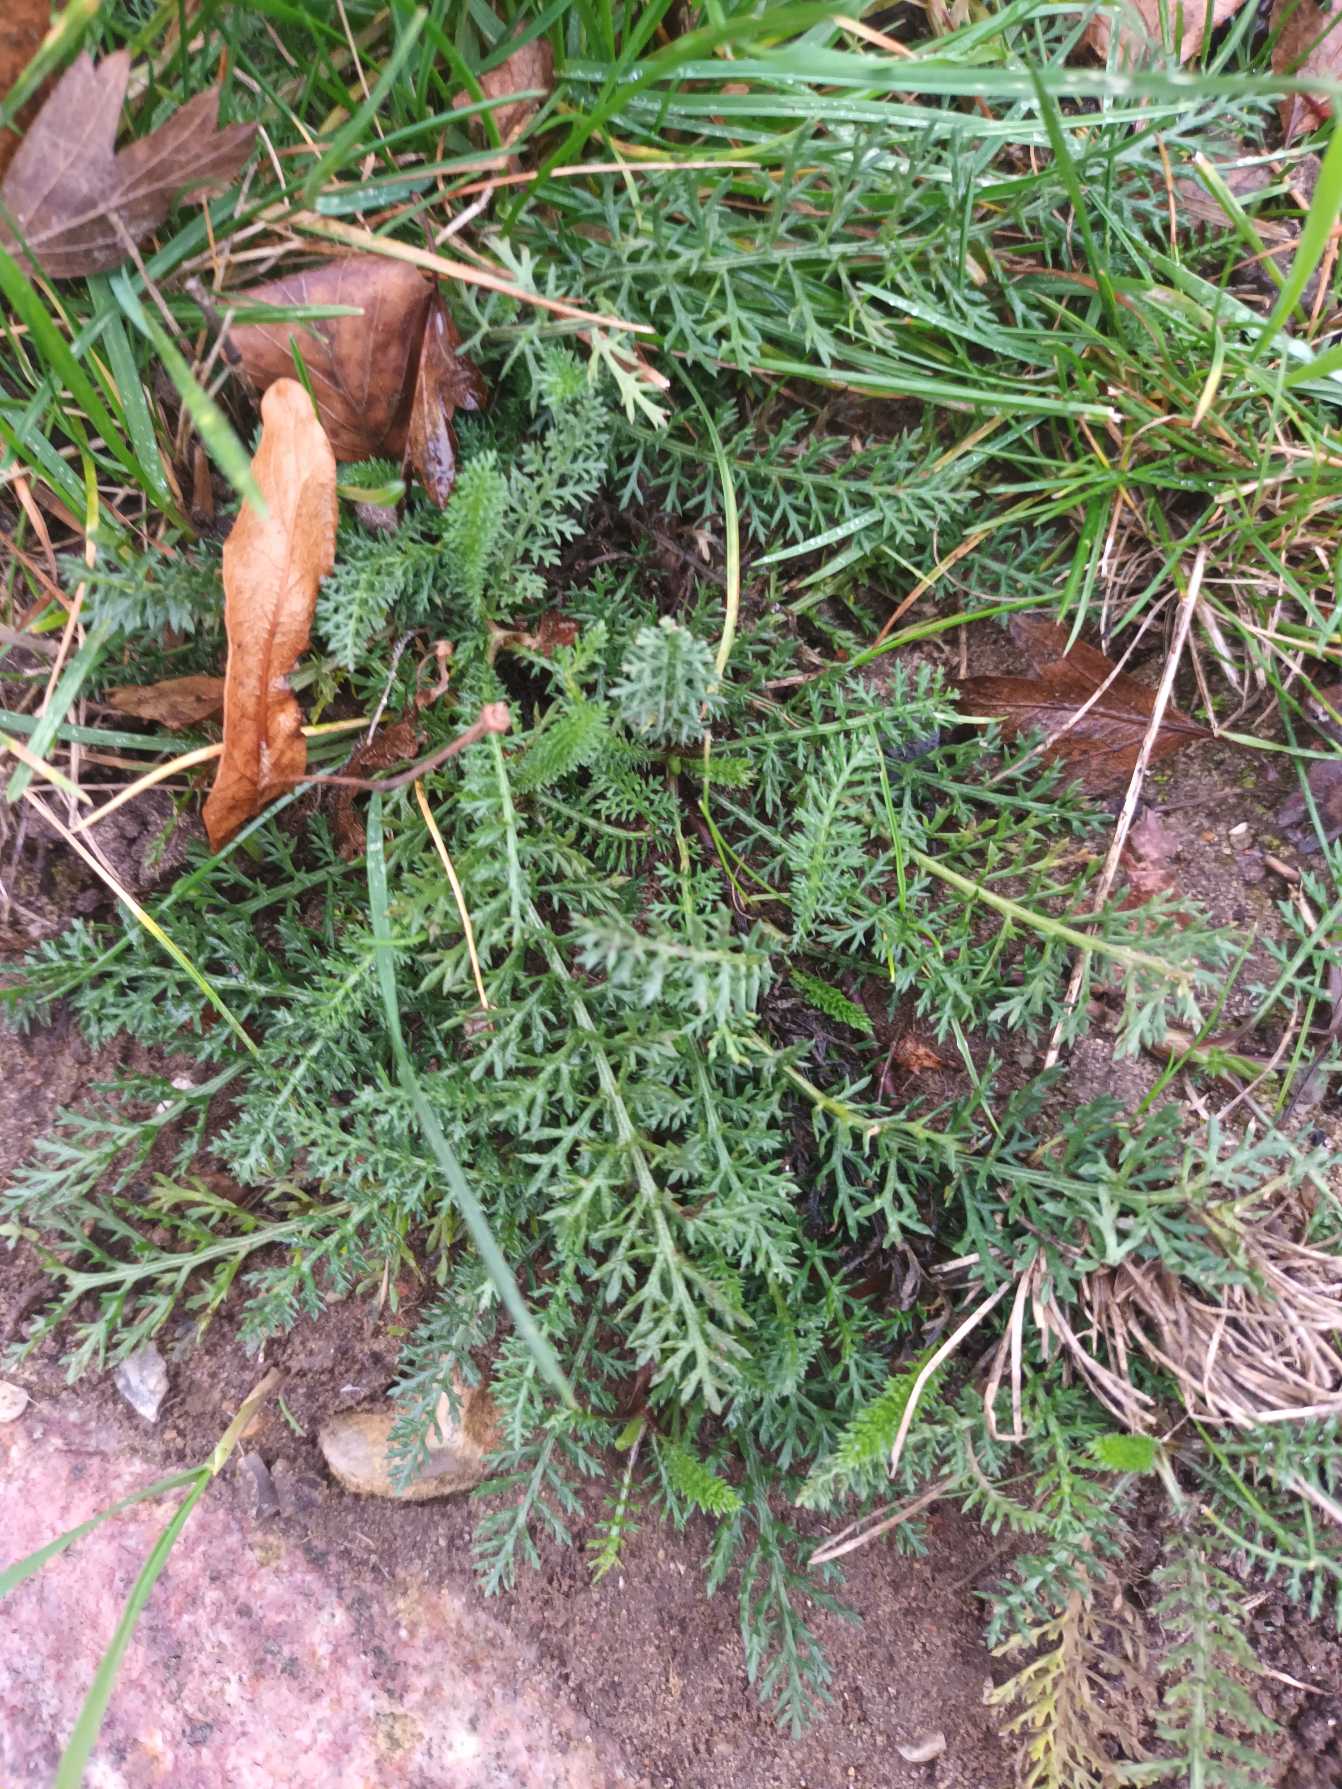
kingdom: Plantae
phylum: Tracheophyta
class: Magnoliopsida
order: Asterales
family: Asteraceae
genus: Achillea
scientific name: Achillea millefolium
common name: Almindelig røllike
